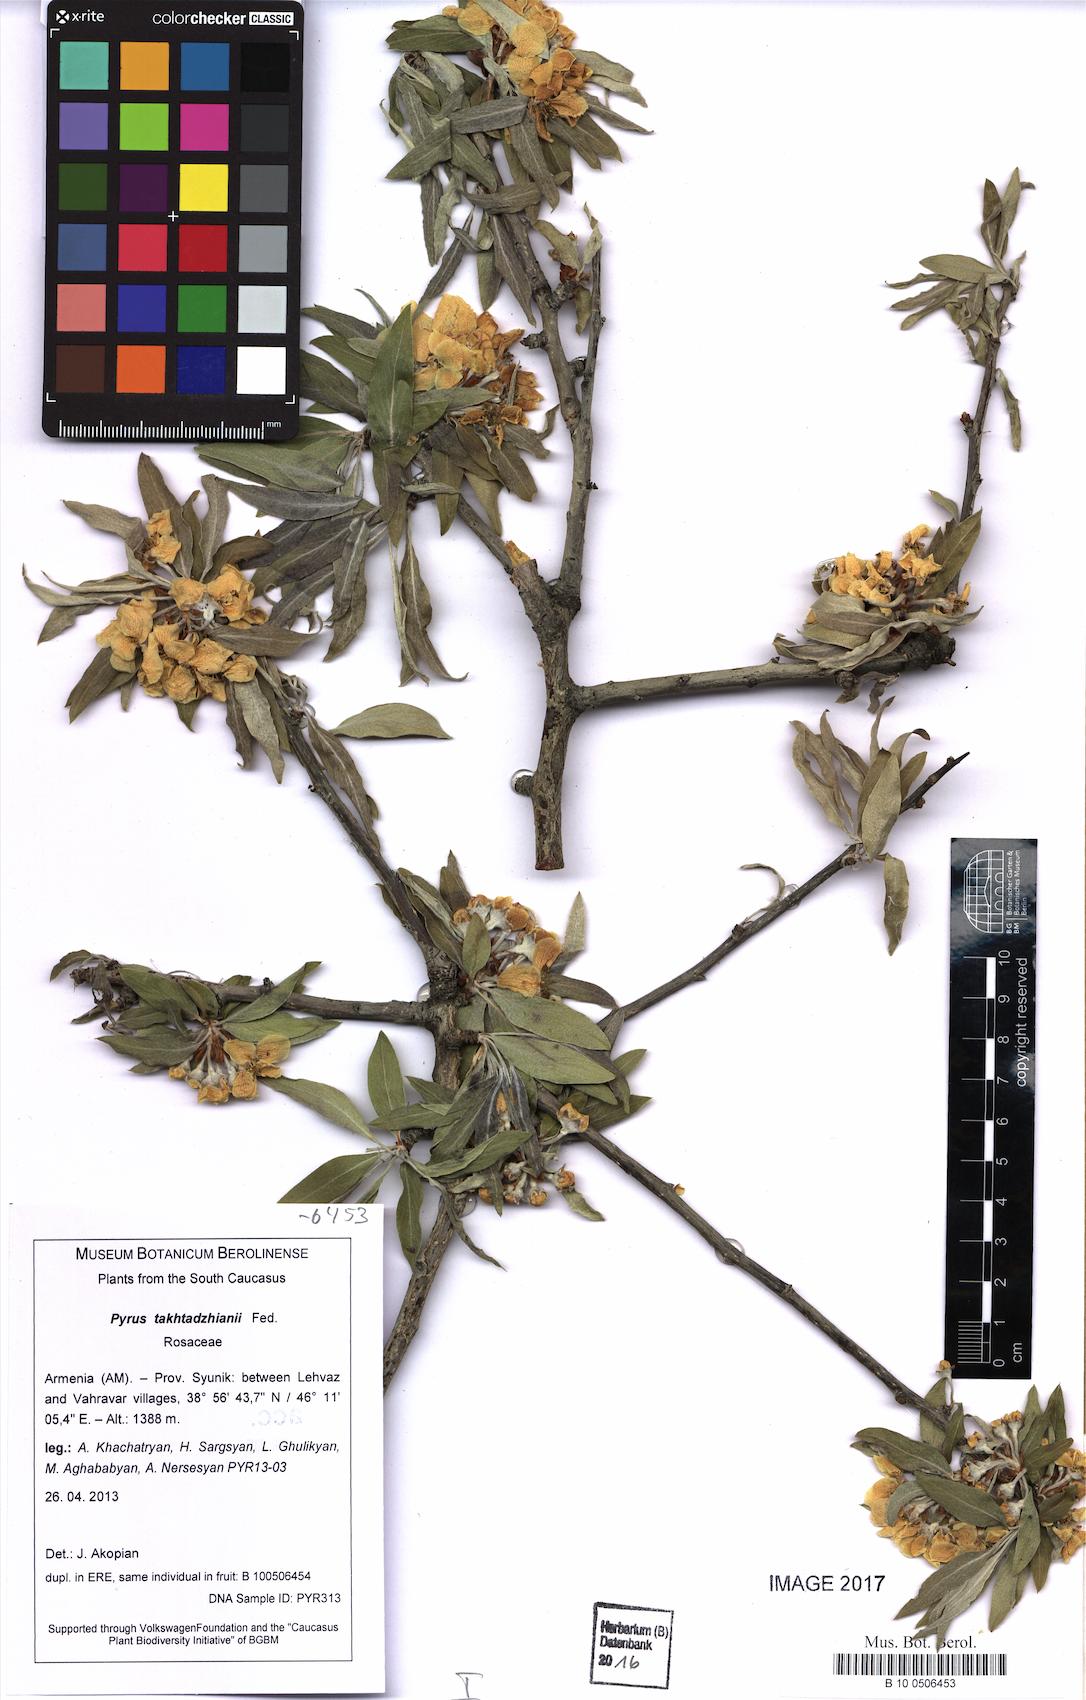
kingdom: Plantae
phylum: Tracheophyta
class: Magnoliopsida
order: Rosales
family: Rosaceae
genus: Pyrus
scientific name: Pyrus takhtadzhianii
